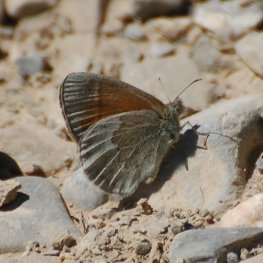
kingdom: Animalia
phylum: Arthropoda
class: Insecta
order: Lepidoptera
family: Nymphalidae
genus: Coenonympha
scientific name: Coenonympha tullia
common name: Large Heath
